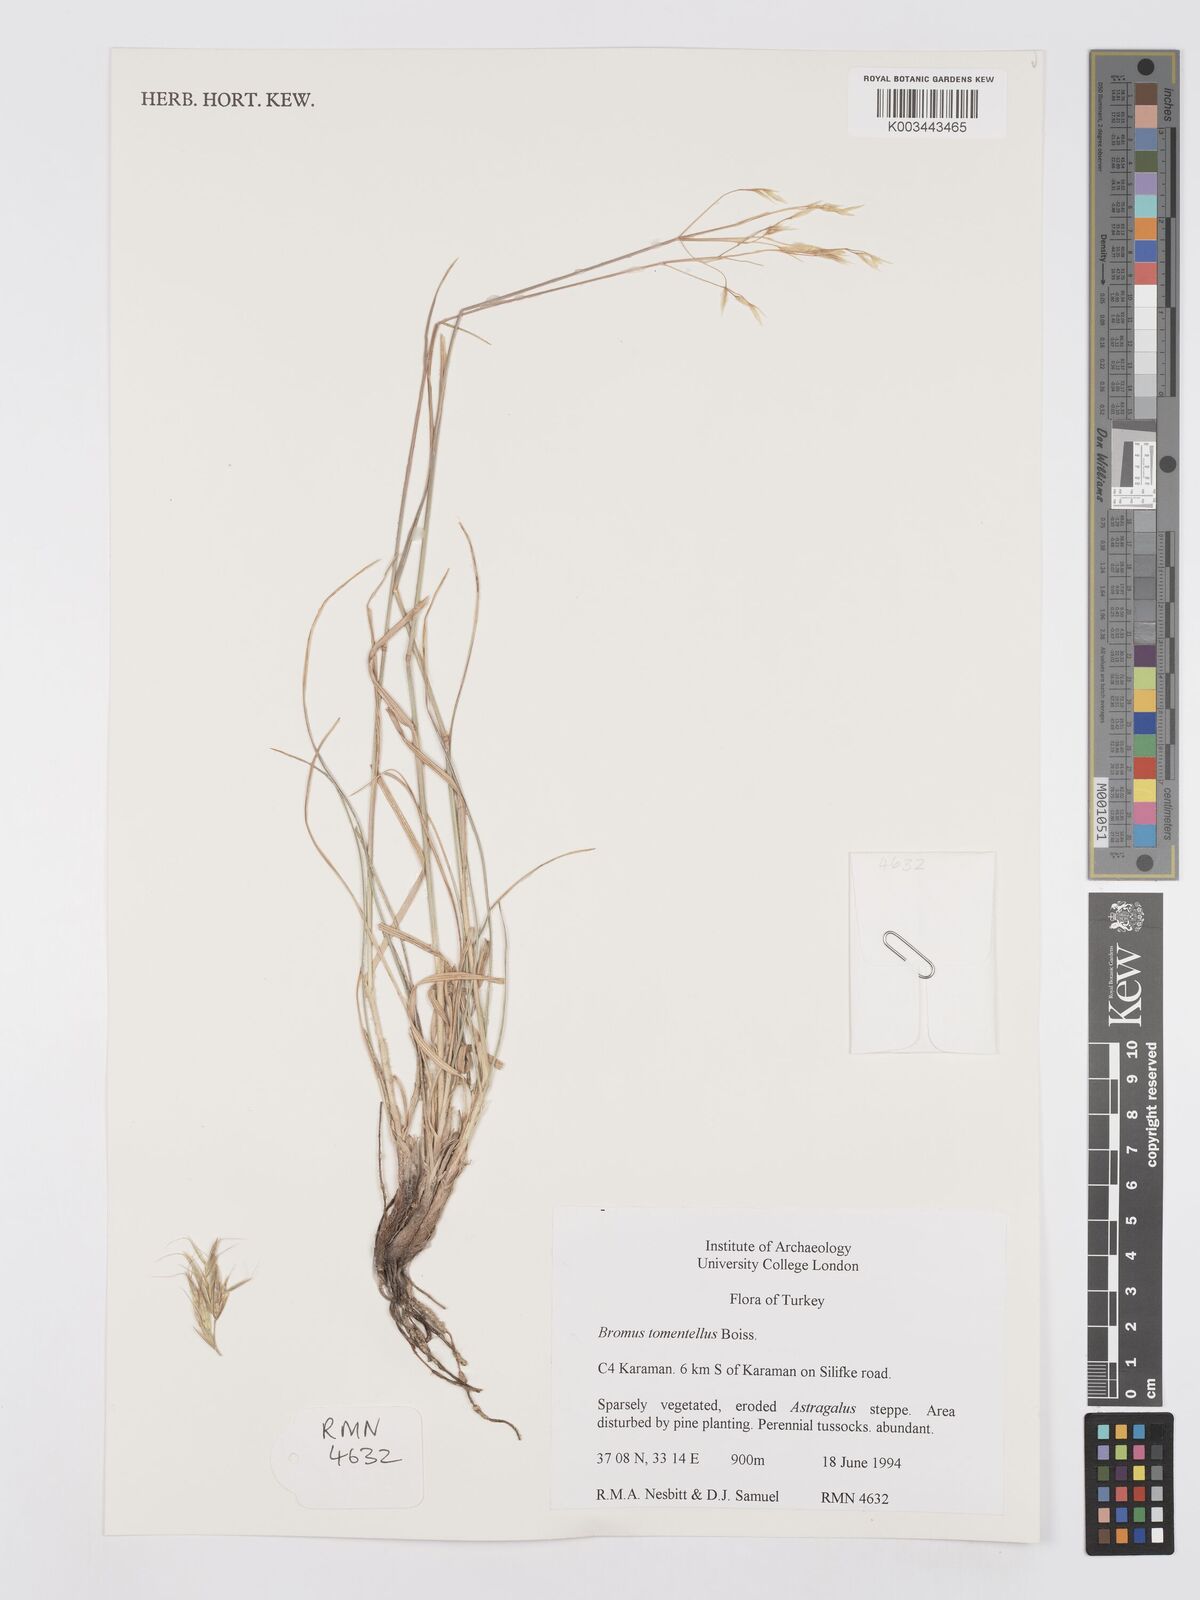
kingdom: Plantae
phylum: Tracheophyta
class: Liliopsida
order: Poales
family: Poaceae
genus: Bromus
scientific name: Bromus tomentellus
